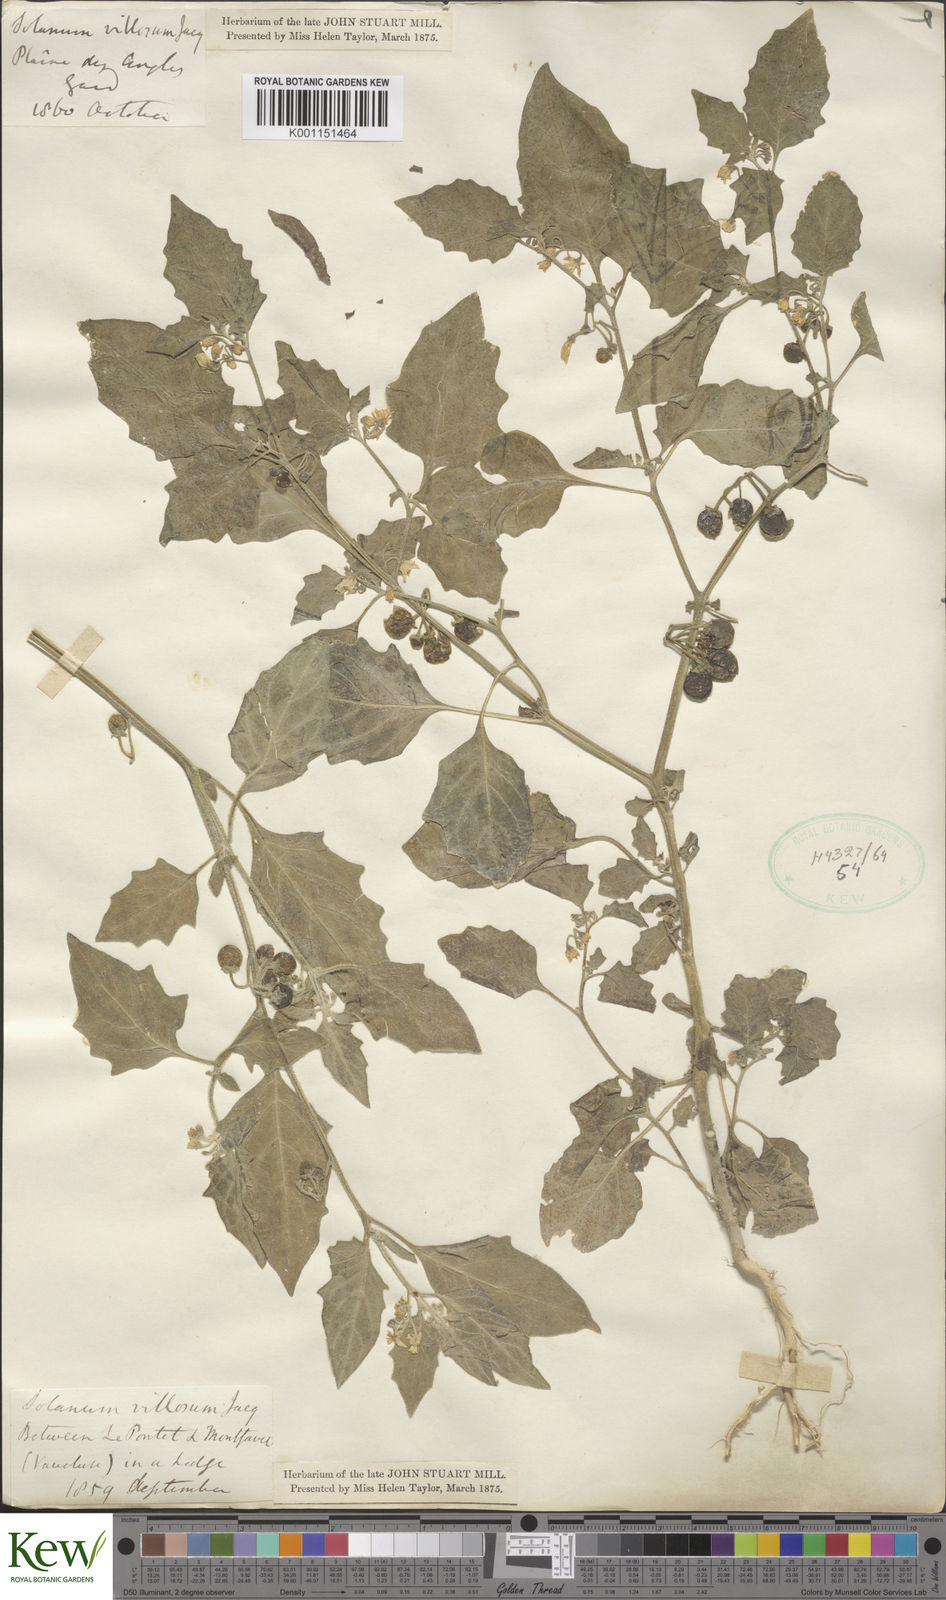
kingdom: Plantae
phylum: Tracheophyta
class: Magnoliopsida
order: Solanales
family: Solanaceae
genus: Solanum
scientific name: Solanum villosum
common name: Red nightshade
